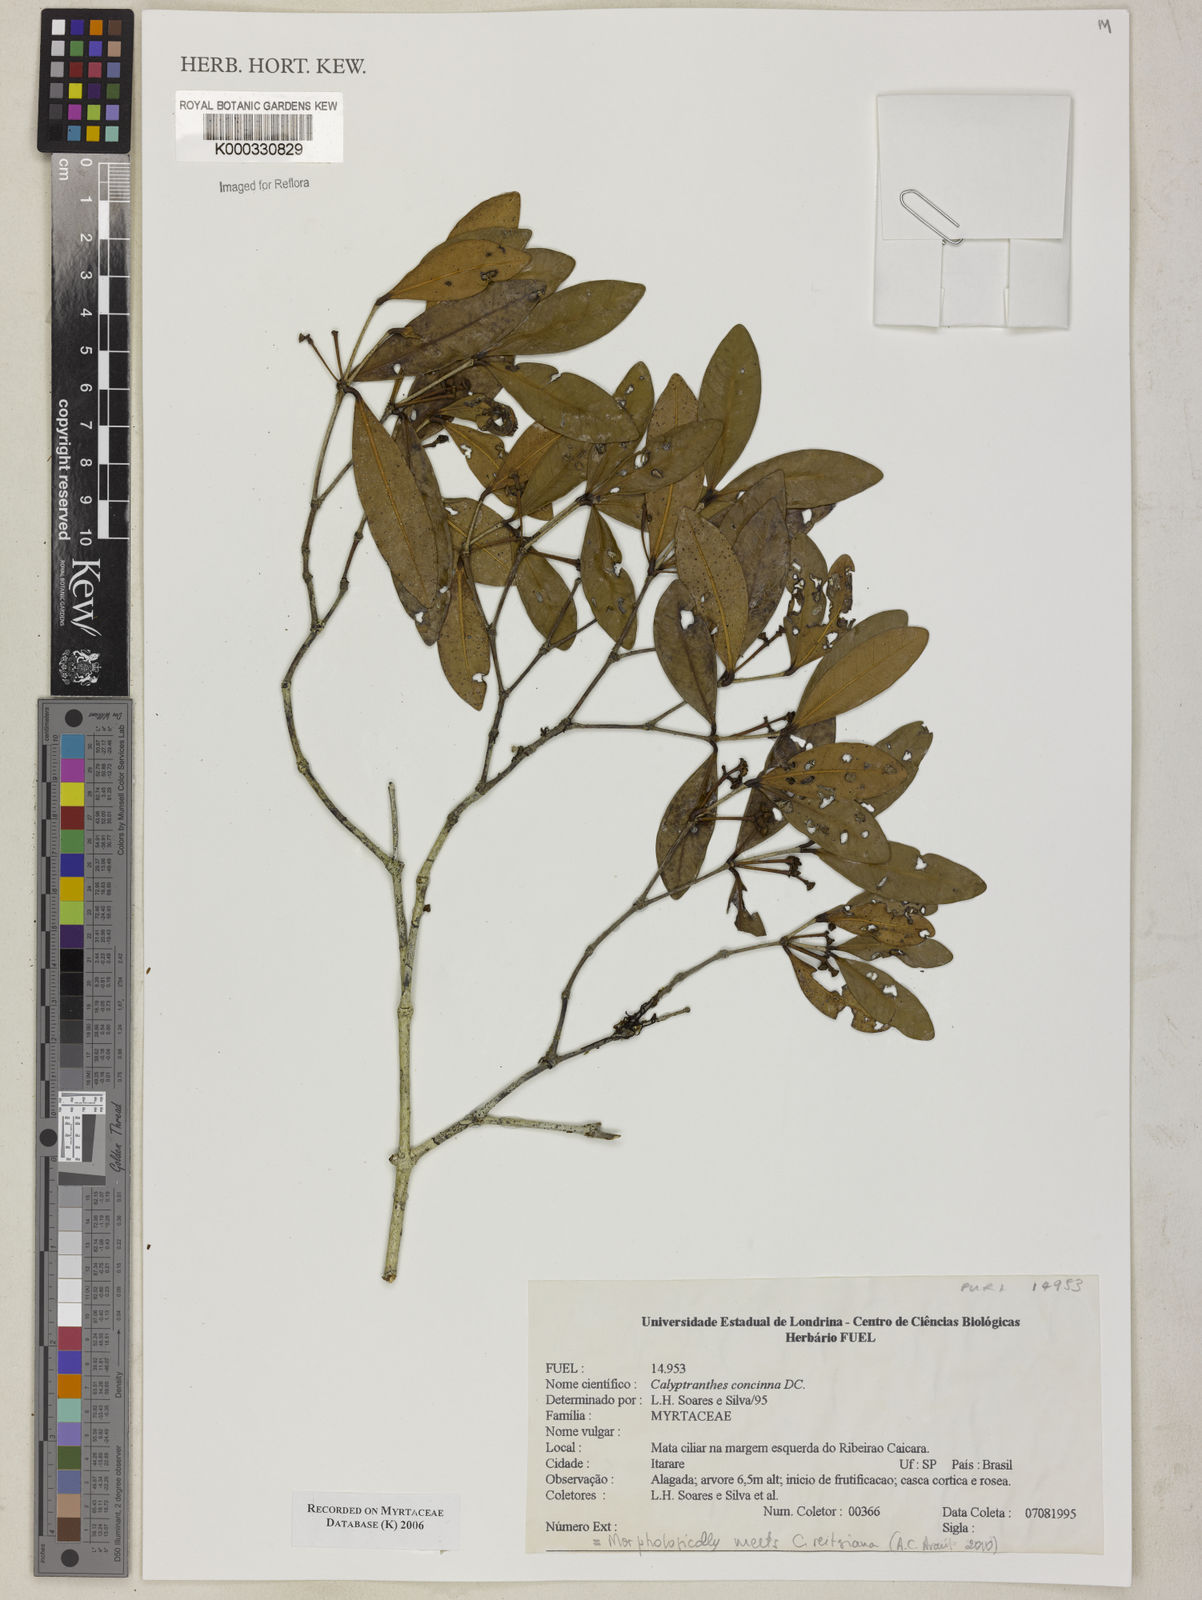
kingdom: Plantae
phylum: Tracheophyta
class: Magnoliopsida
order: Myrtales
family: Myrtaceae
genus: Myrcia
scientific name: Myrcia cruciflora
